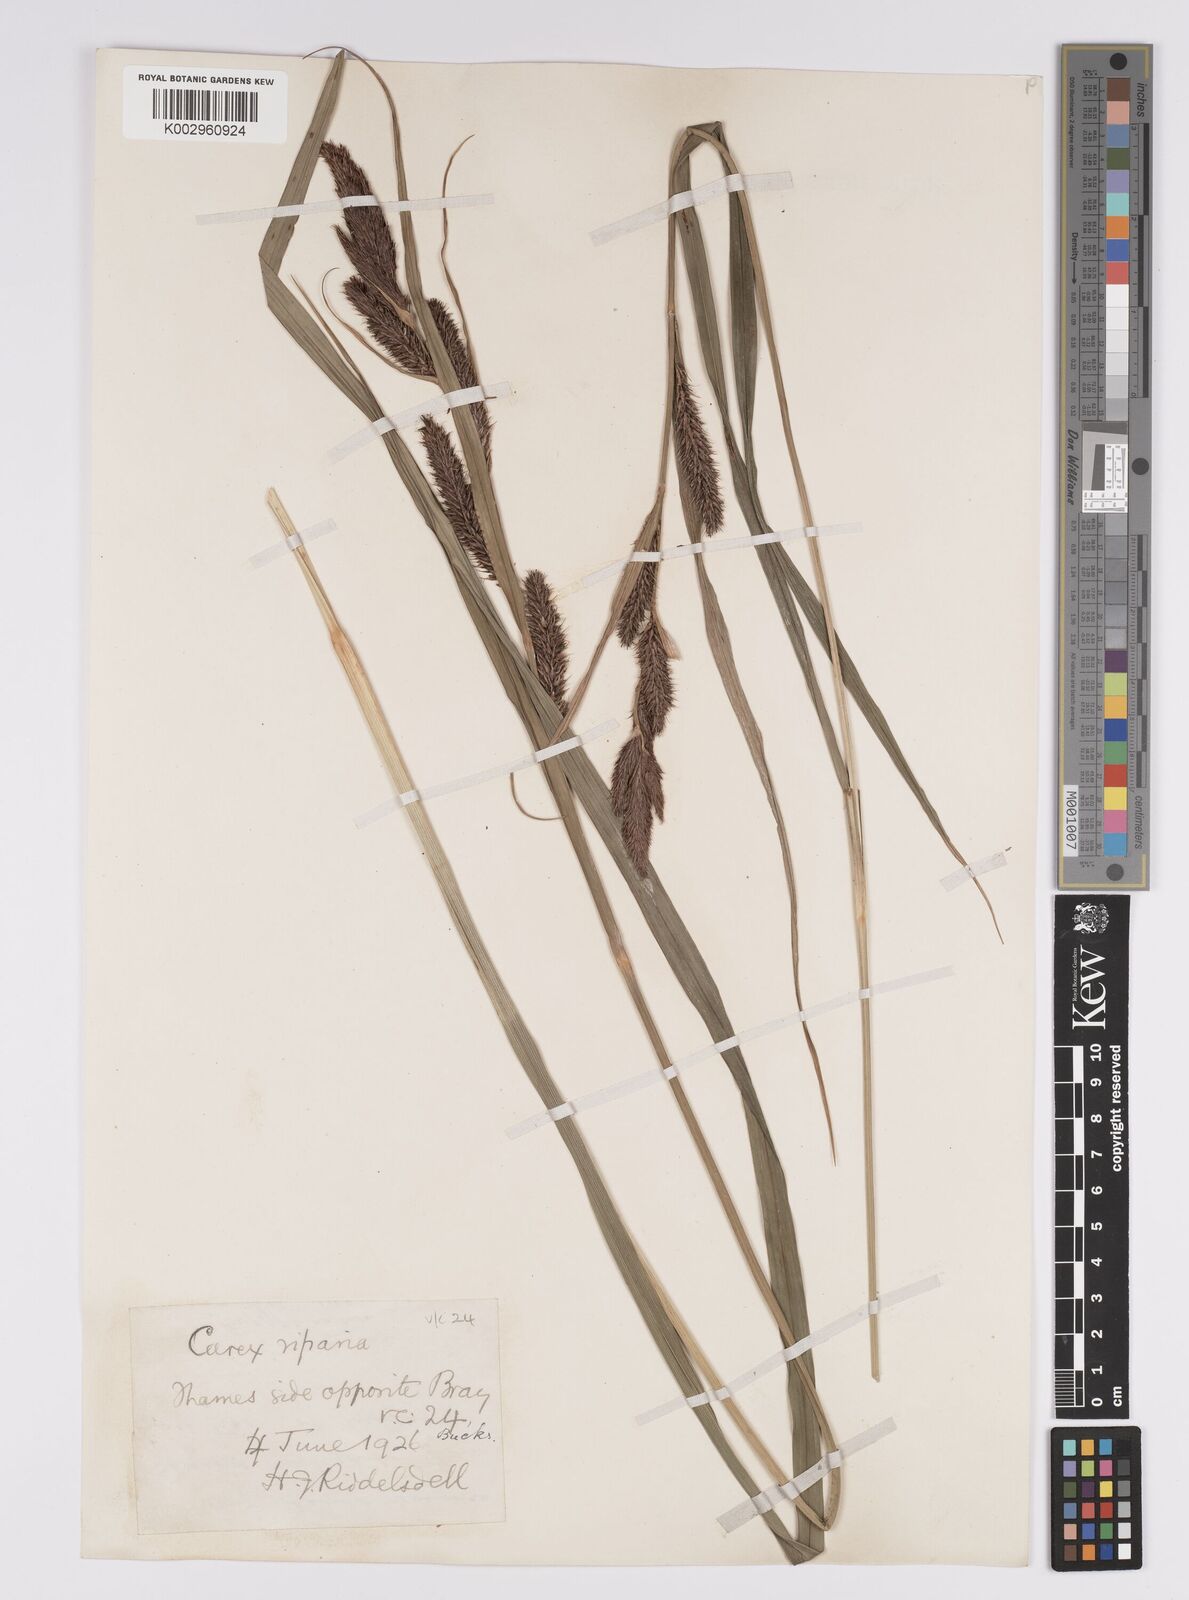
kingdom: Plantae
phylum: Tracheophyta
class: Liliopsida
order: Poales
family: Cyperaceae
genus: Carex
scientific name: Carex riparia
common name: Greater pond-sedge
